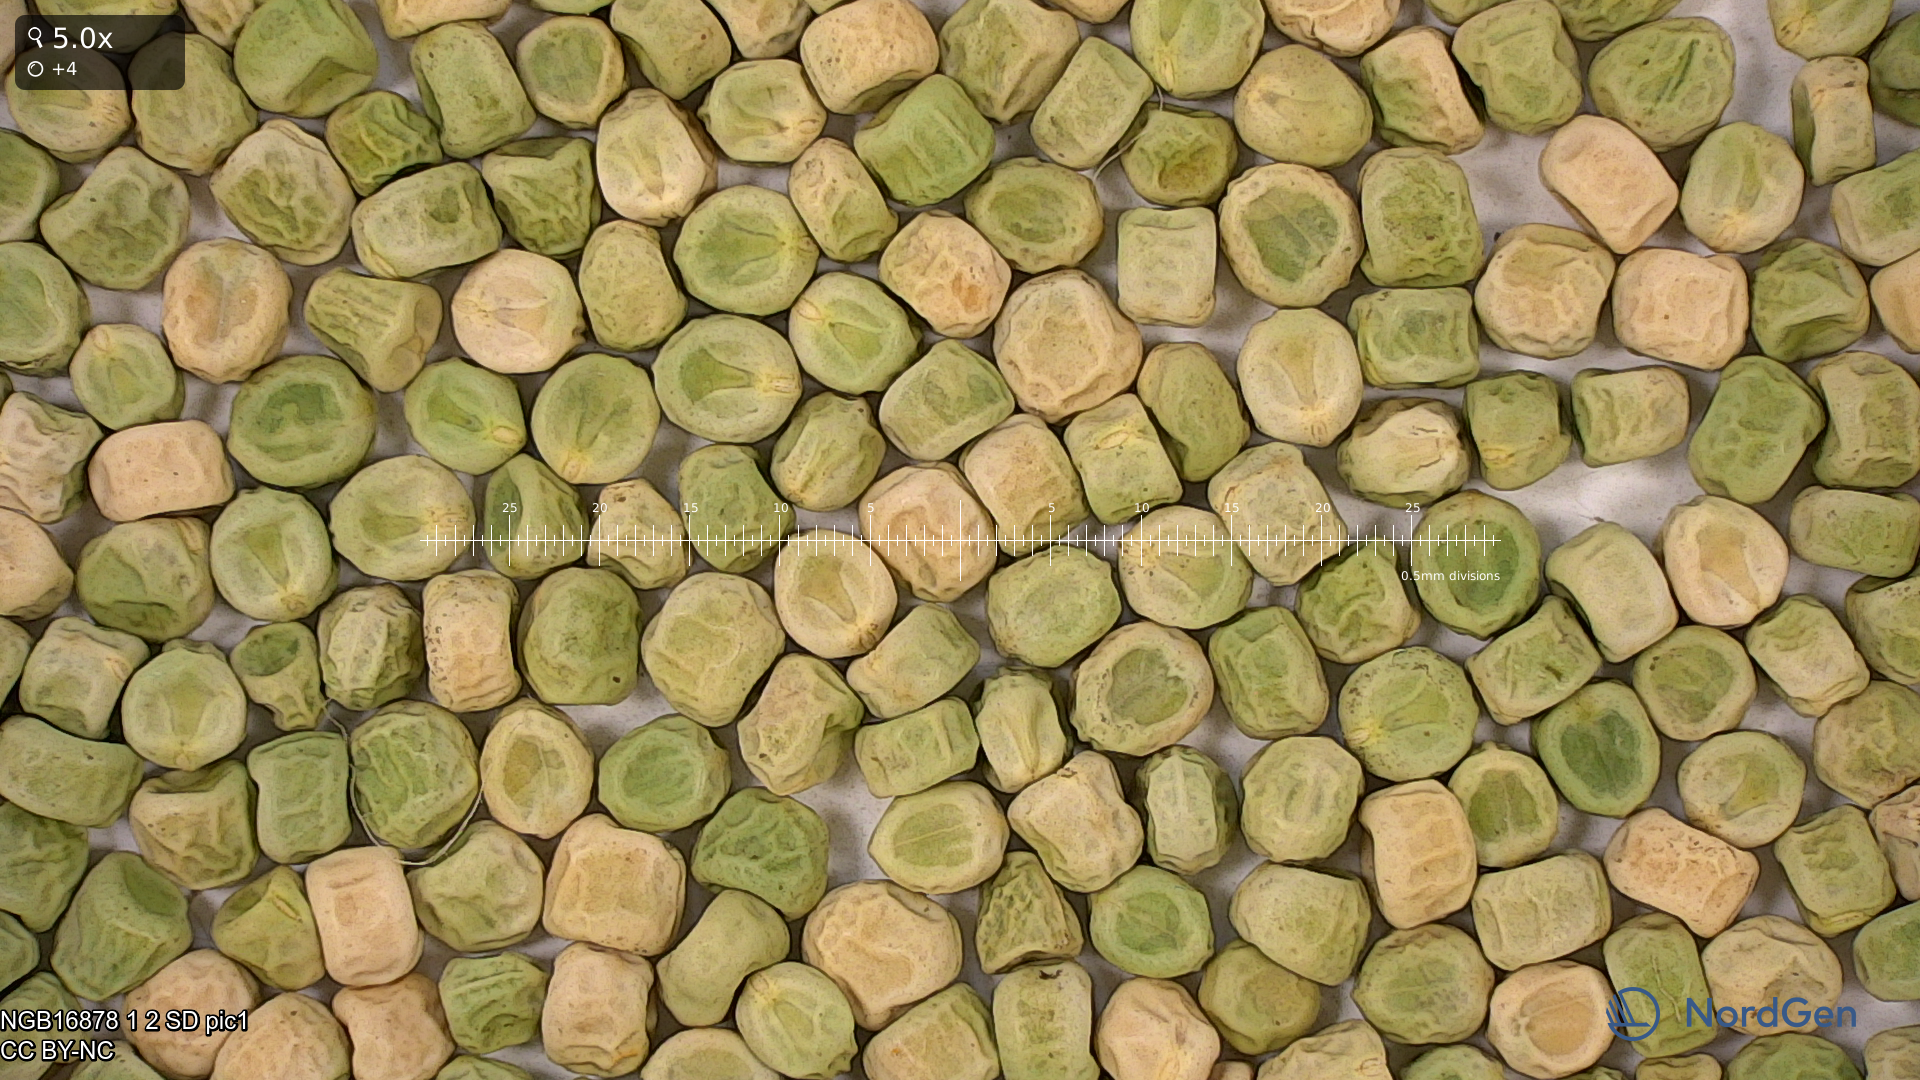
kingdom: Plantae
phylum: Tracheophyta
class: Magnoliopsida
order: Fabales
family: Fabaceae
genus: Lathyrus
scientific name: Lathyrus oleraceus
